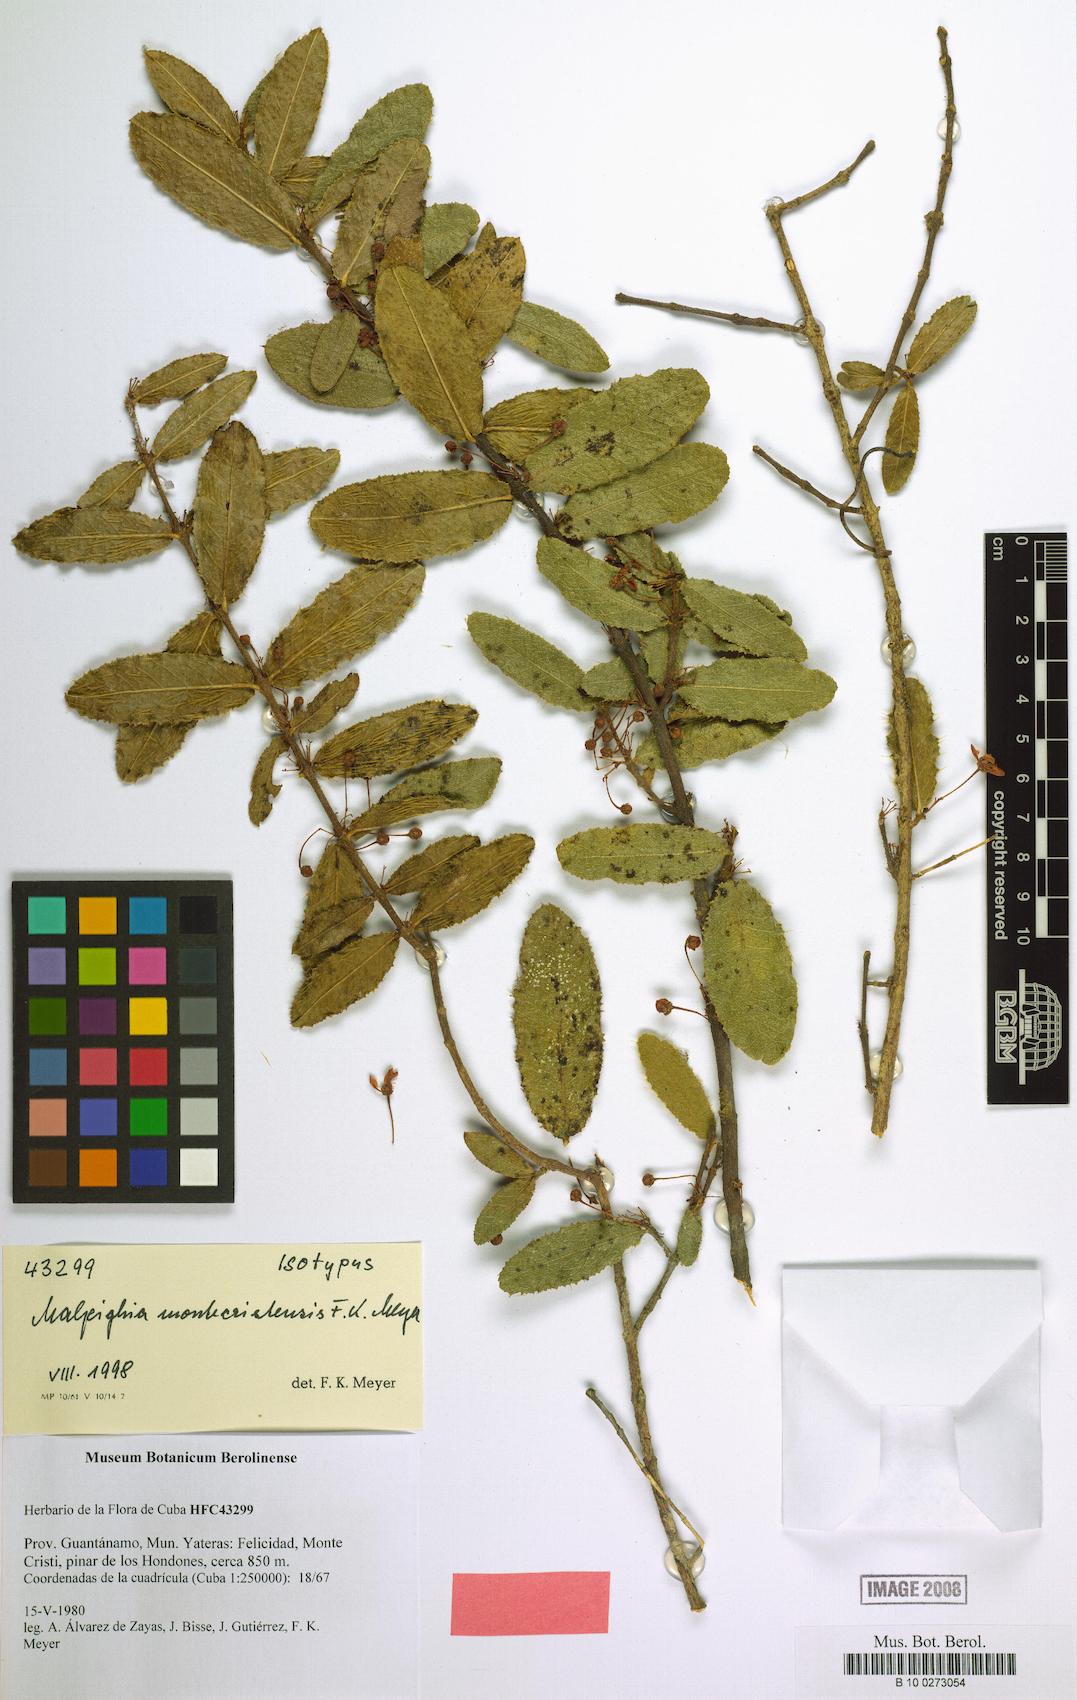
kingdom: Plantae
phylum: Tracheophyta
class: Magnoliopsida
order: Malpighiales
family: Malpighiaceae
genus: Malpighia
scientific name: Malpighia megacantha
